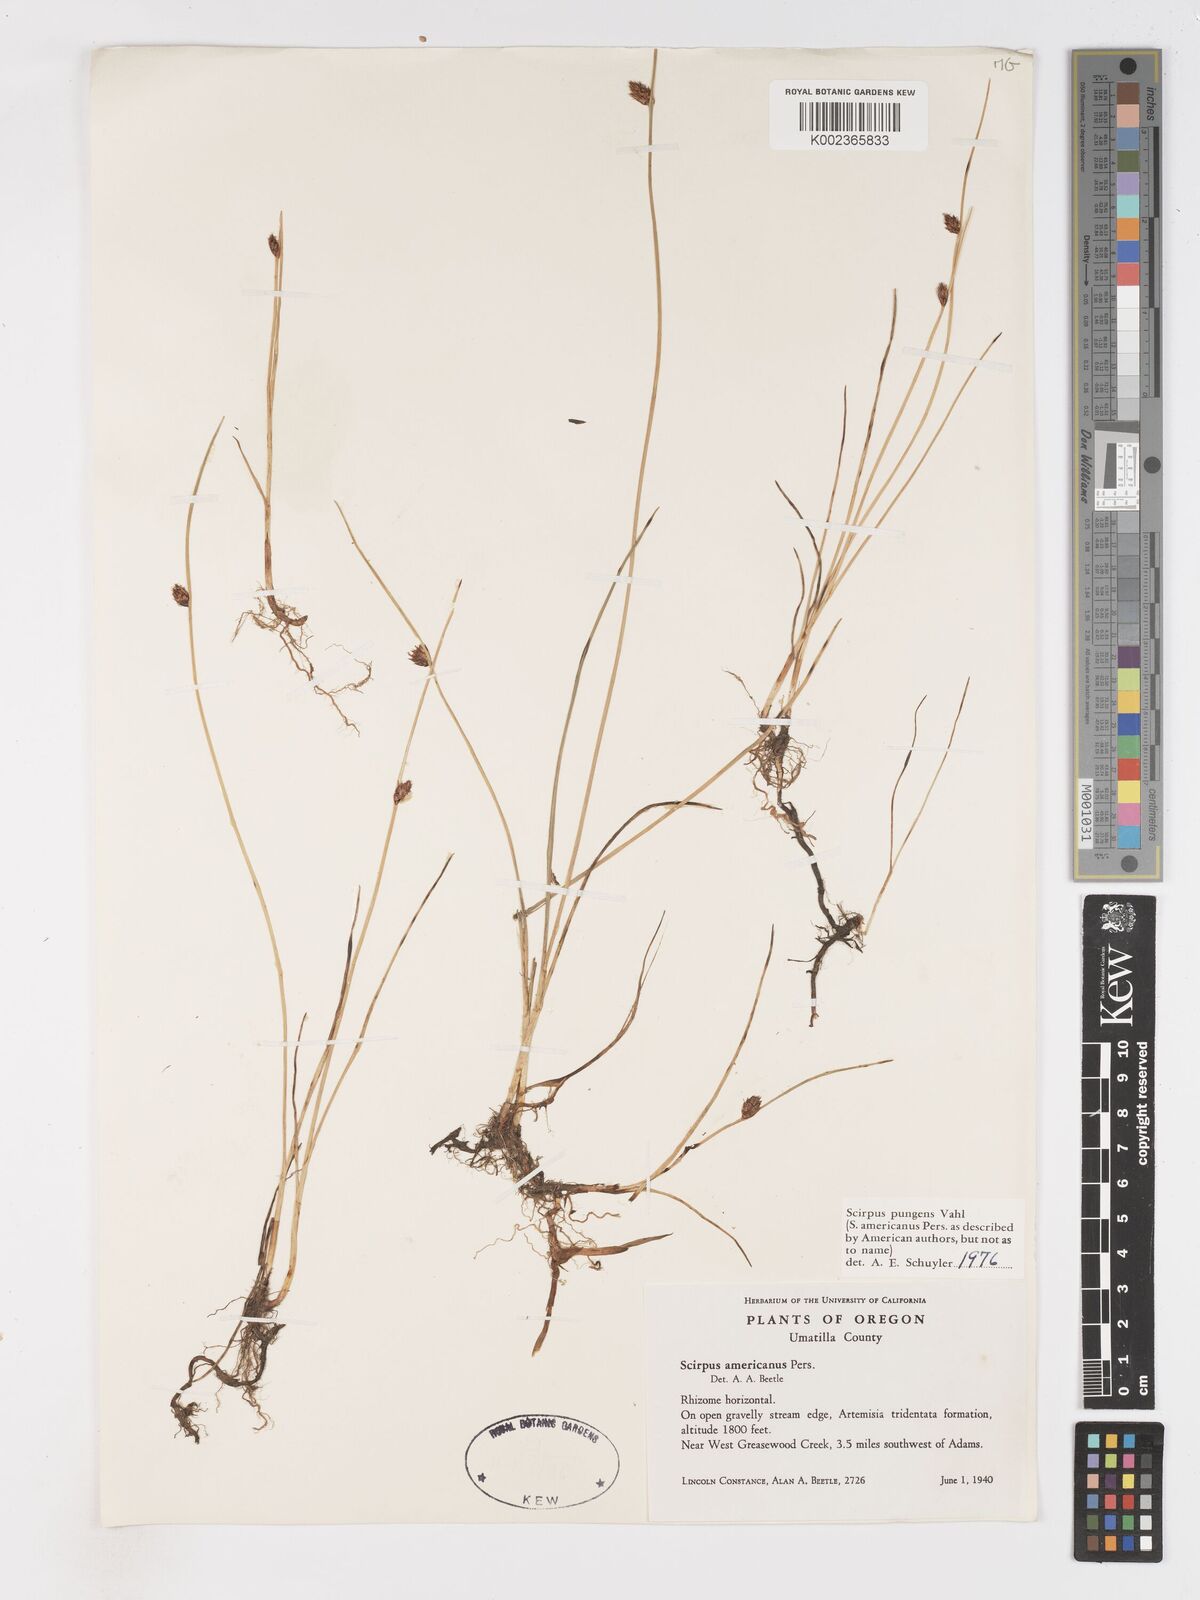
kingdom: Plantae
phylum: Tracheophyta
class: Liliopsida
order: Poales
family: Cyperaceae
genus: Schoenoplectus
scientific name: Schoenoplectus pungens
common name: Sharp club-rush
